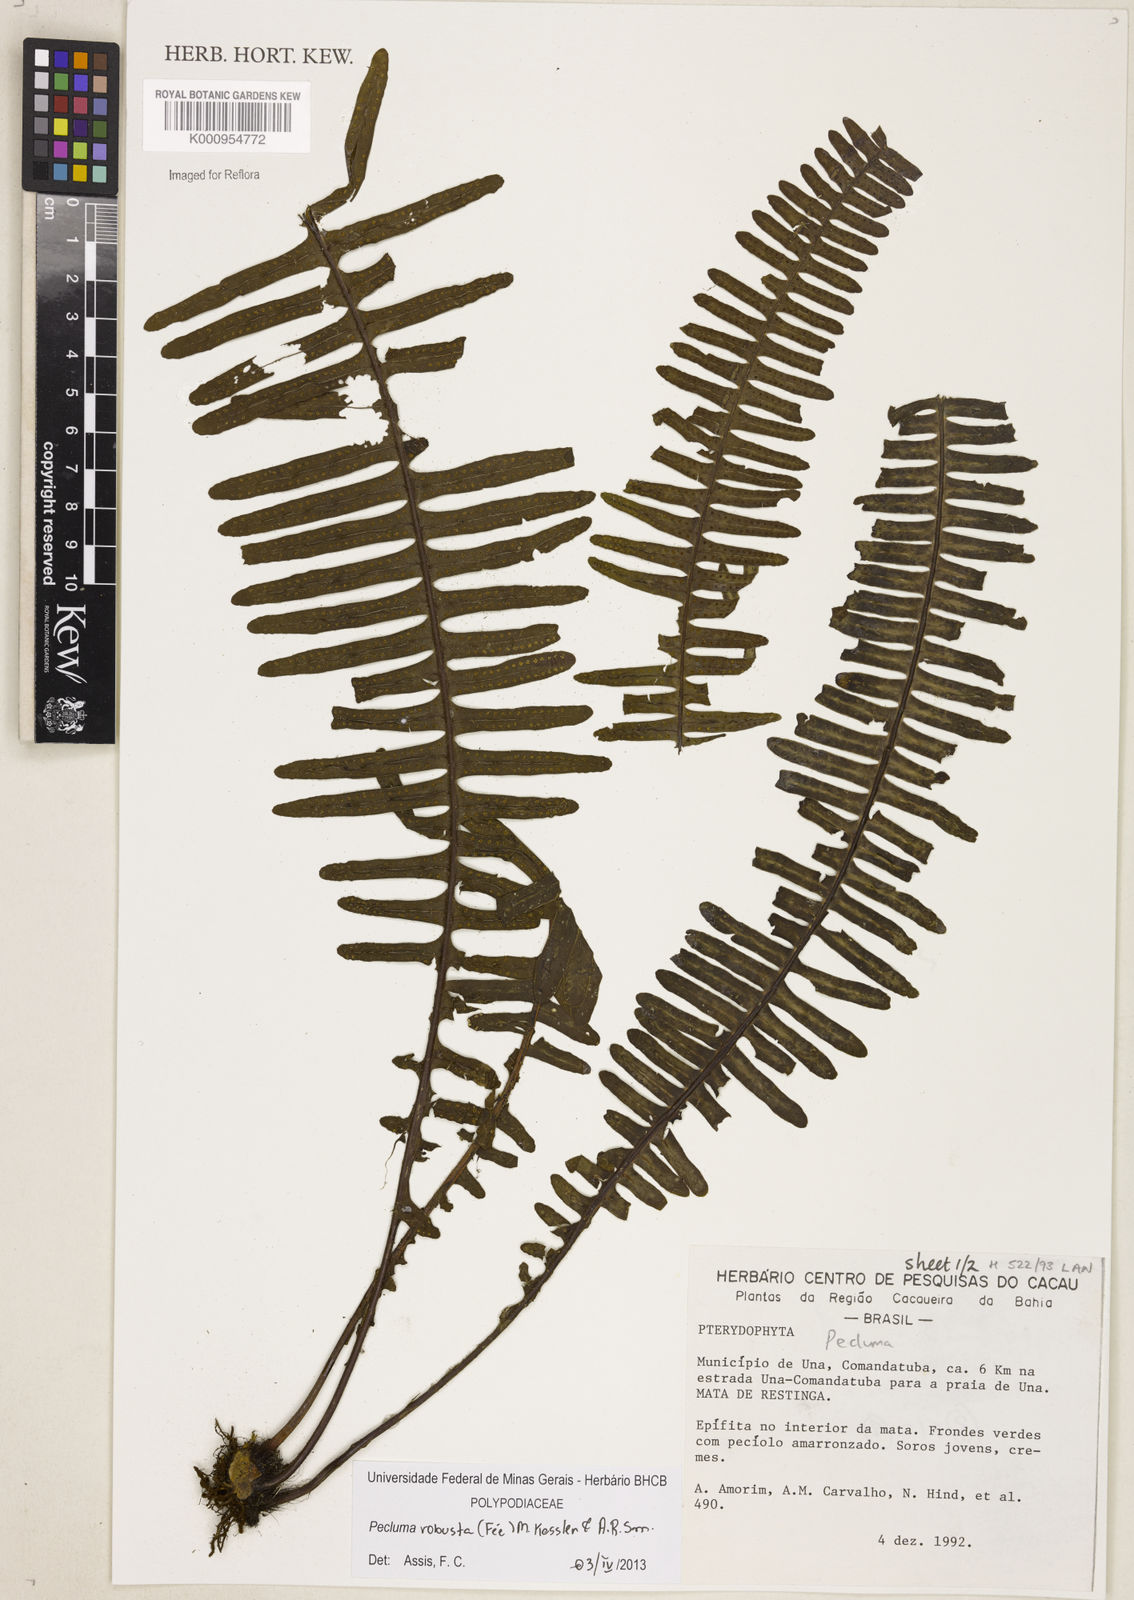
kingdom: Plantae
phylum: Tracheophyta
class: Polypodiopsida
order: Polypodiales
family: Polypodiaceae
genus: Pecluma
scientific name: Pecluma
